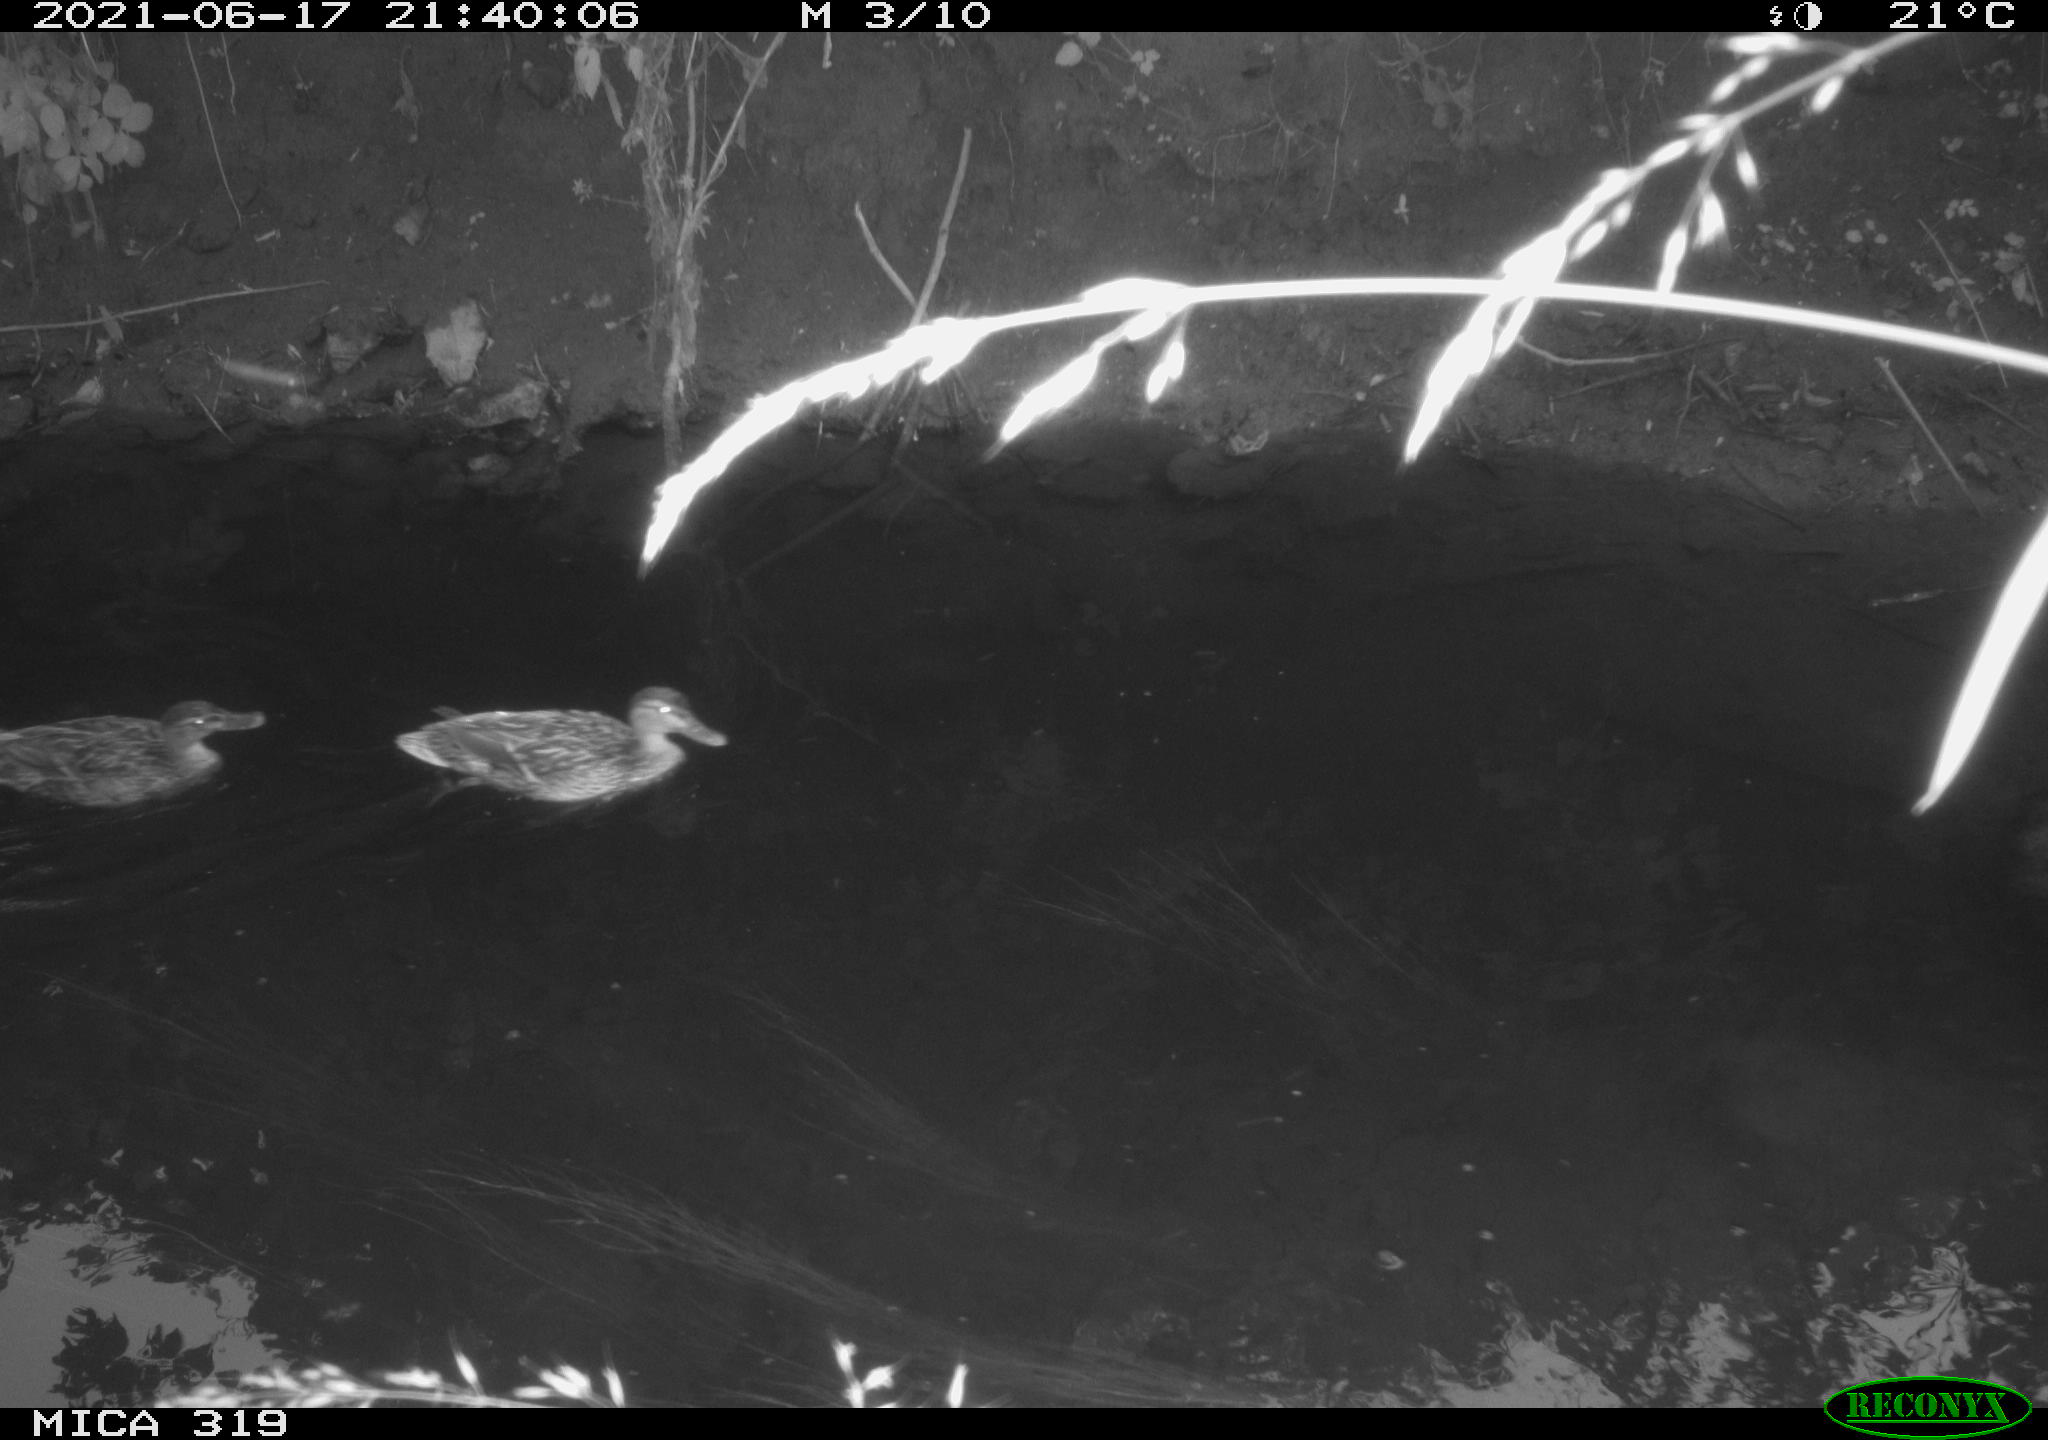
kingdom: Animalia
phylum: Chordata
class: Aves
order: Anseriformes
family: Anatidae
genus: Mareca
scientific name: Mareca strepera
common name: Gadwall
